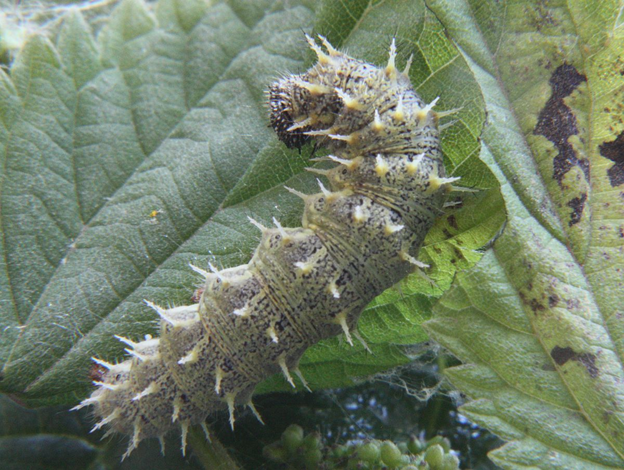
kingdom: Animalia
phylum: Arthropoda
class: Insecta
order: Lepidoptera
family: Nymphalidae
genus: Vanessa
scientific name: Vanessa atalanta
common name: Red Admiral
